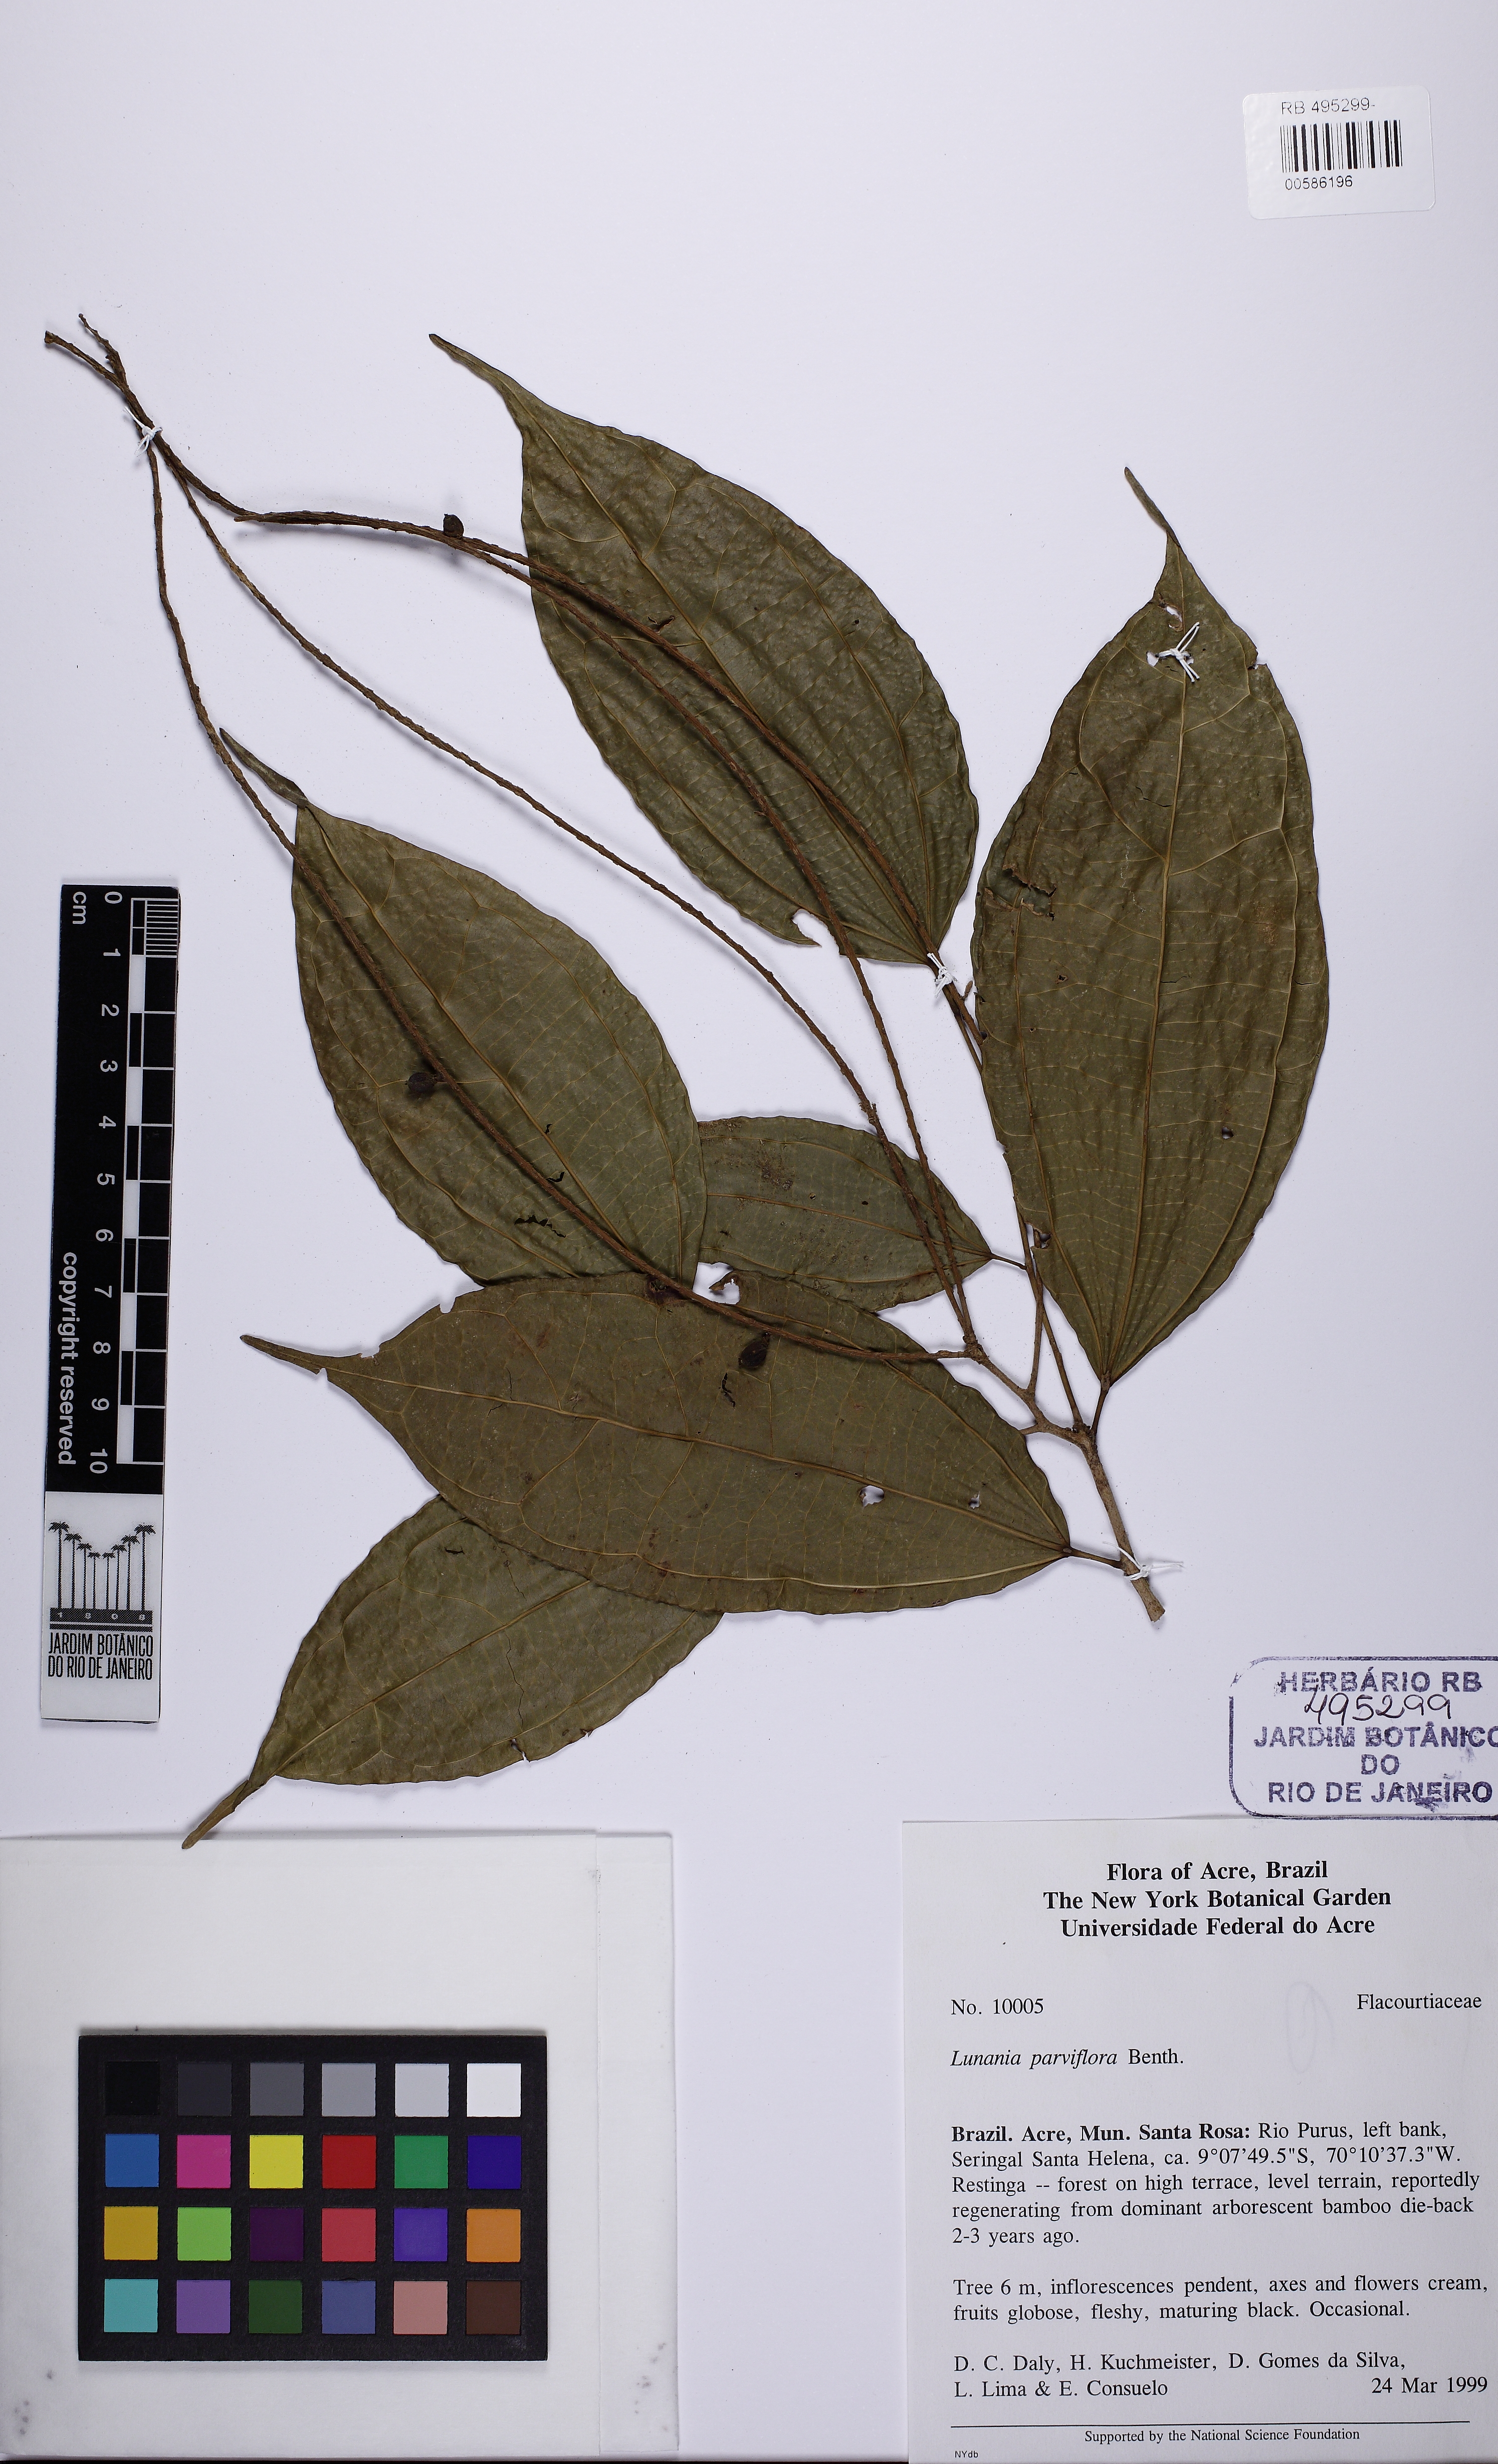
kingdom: Plantae
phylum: Tracheophyta
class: Magnoliopsida
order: Malpighiales
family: Salicaceae
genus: Lunania
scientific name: Lunania parviflora
